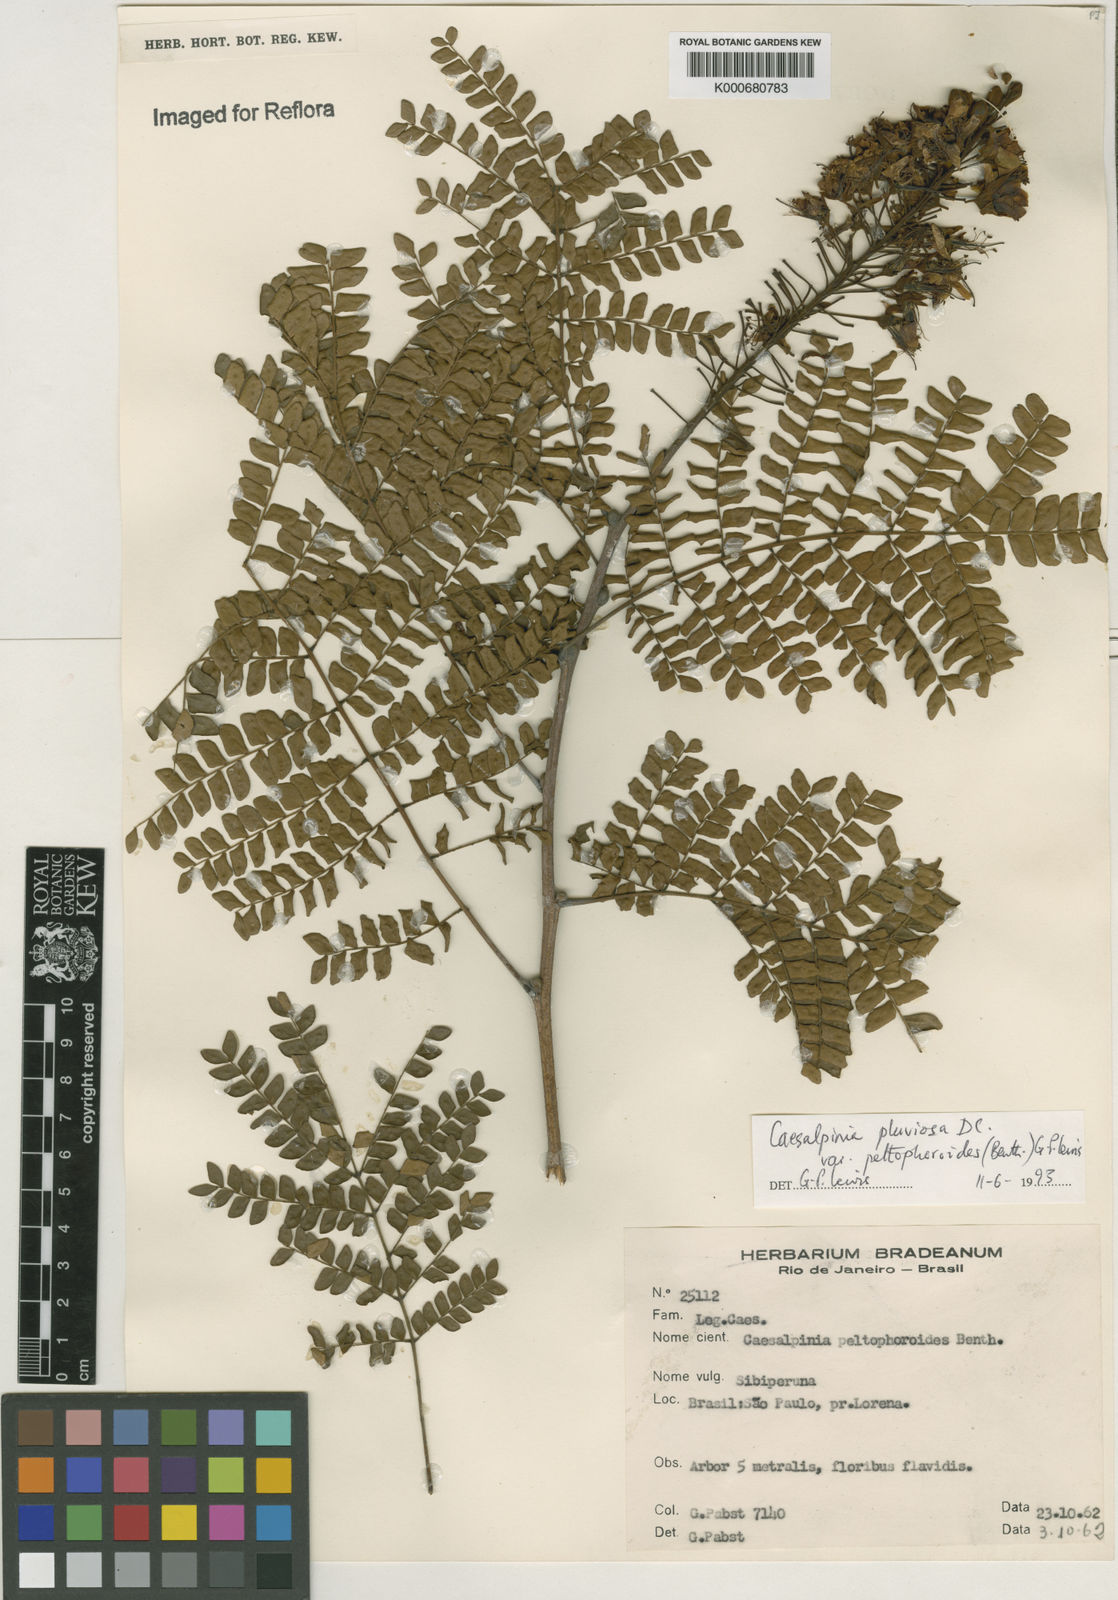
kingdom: Plantae
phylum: Tracheophyta
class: Magnoliopsida
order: Fabales
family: Fabaceae
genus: Cenostigma
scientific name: Cenostigma pluviosum
